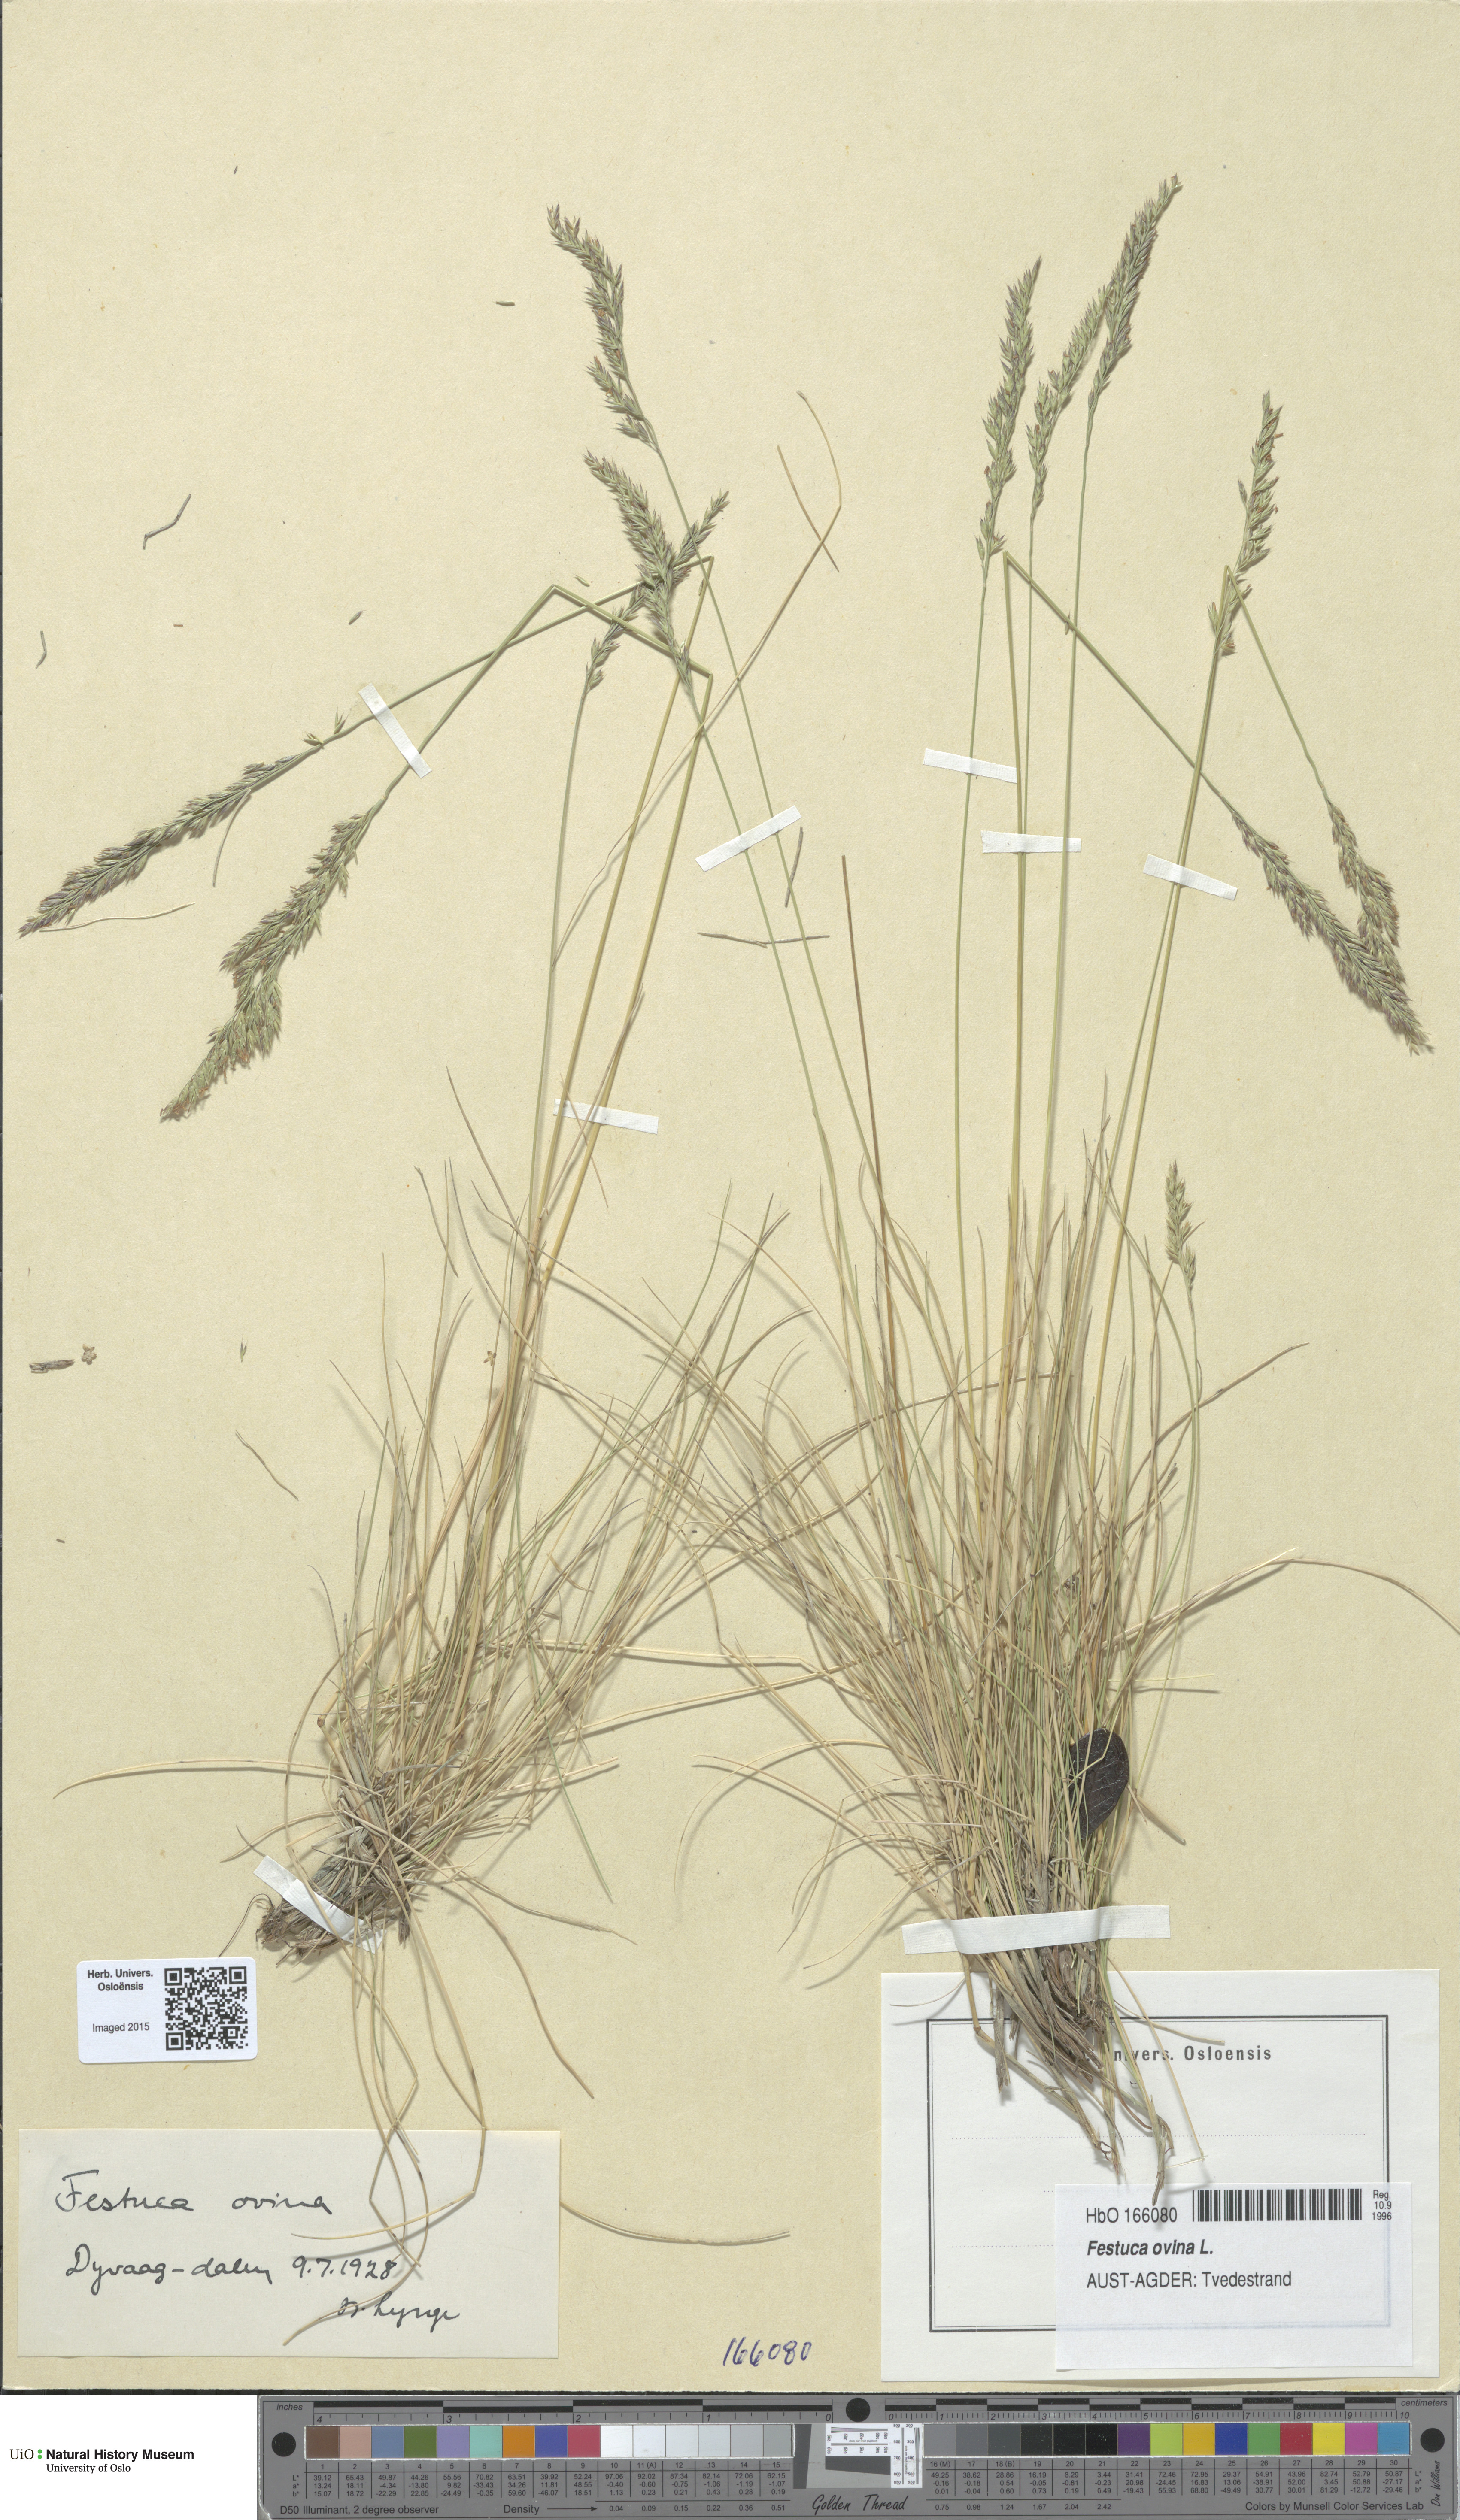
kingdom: Plantae
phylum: Tracheophyta
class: Liliopsida
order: Poales
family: Poaceae
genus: Festuca
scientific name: Festuca ovina
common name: Sheep fescue
